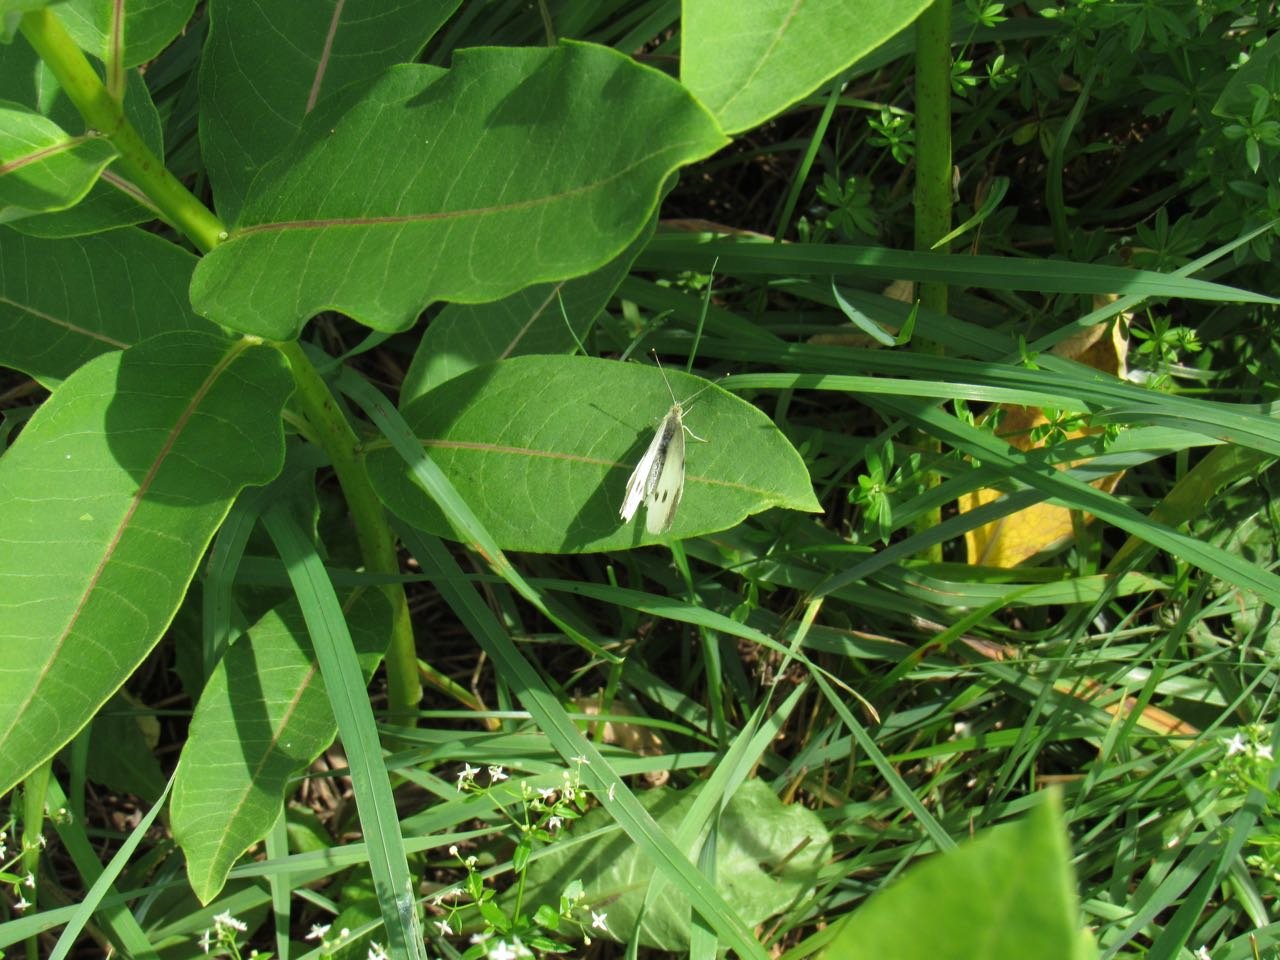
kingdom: Animalia
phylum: Arthropoda
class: Insecta
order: Lepidoptera
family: Pieridae
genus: Pieris
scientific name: Pieris rapae
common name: Cabbage White
